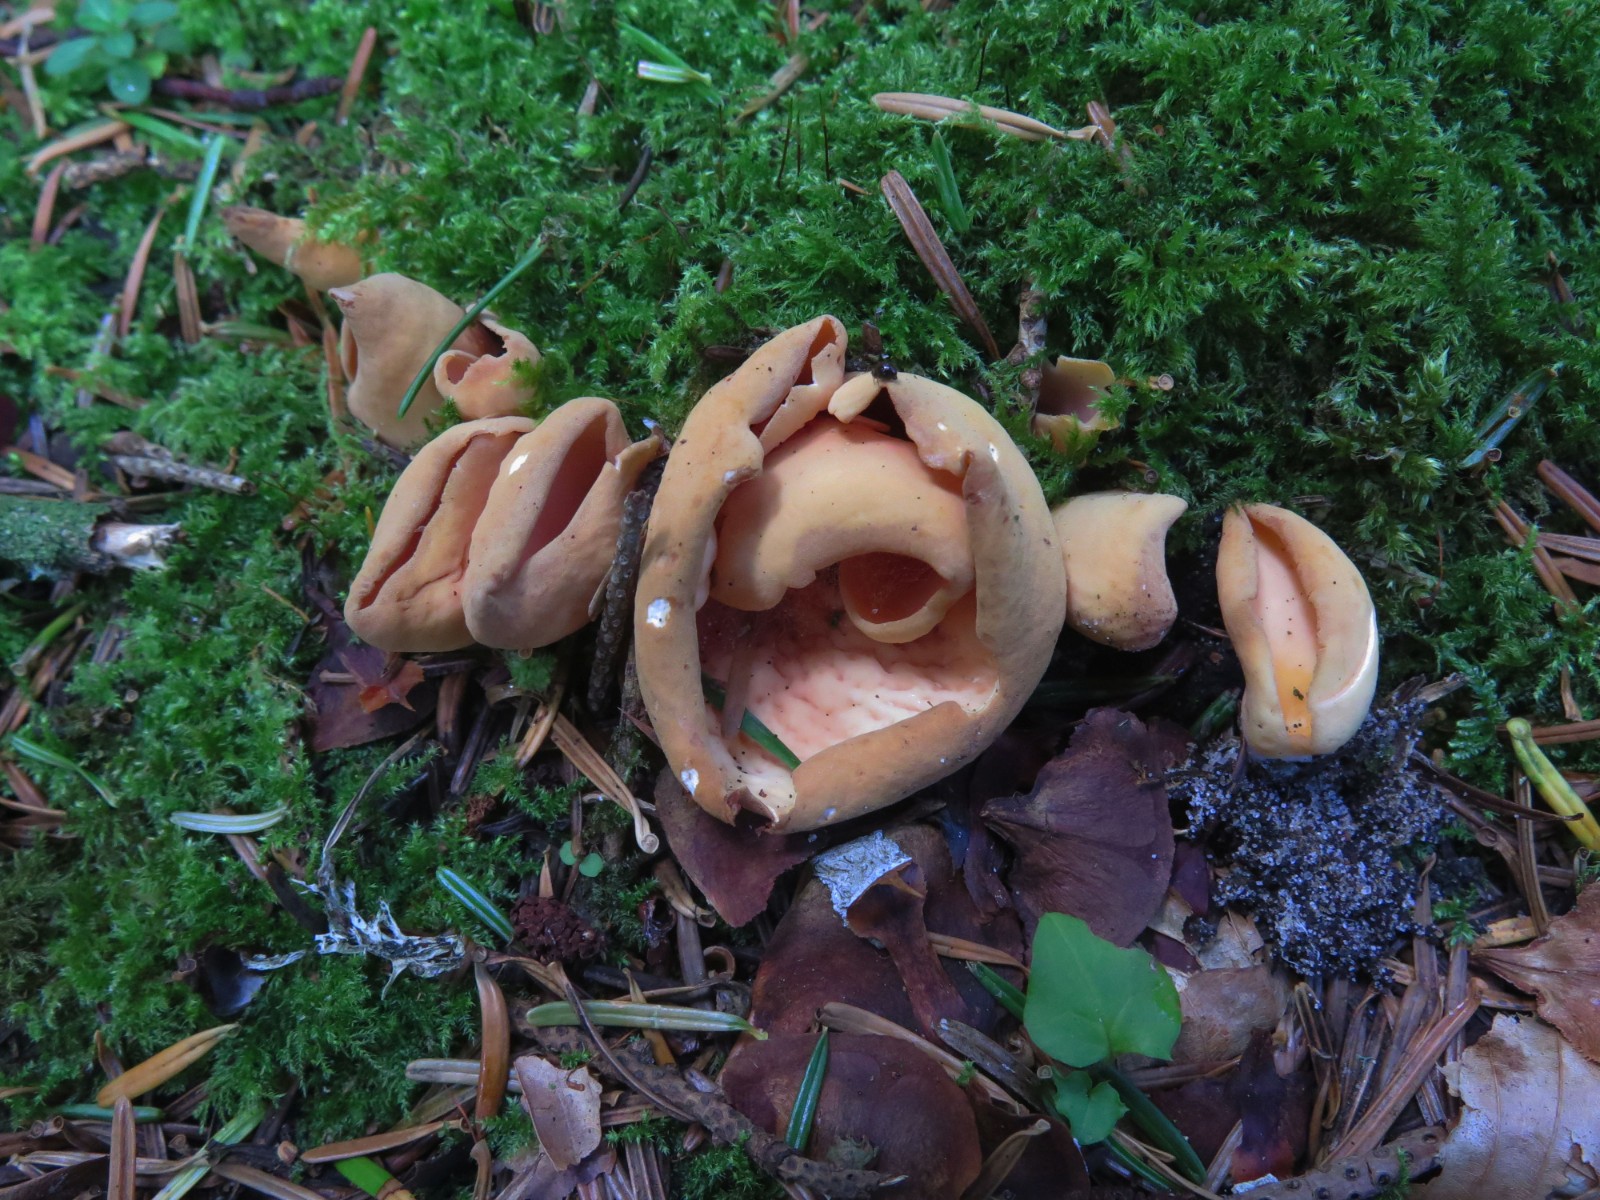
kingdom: Fungi
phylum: Ascomycota
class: Pezizomycetes
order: Pezizales
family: Otideaceae
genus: Otidea
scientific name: Otidea onotica
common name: æsel-ørebæger
